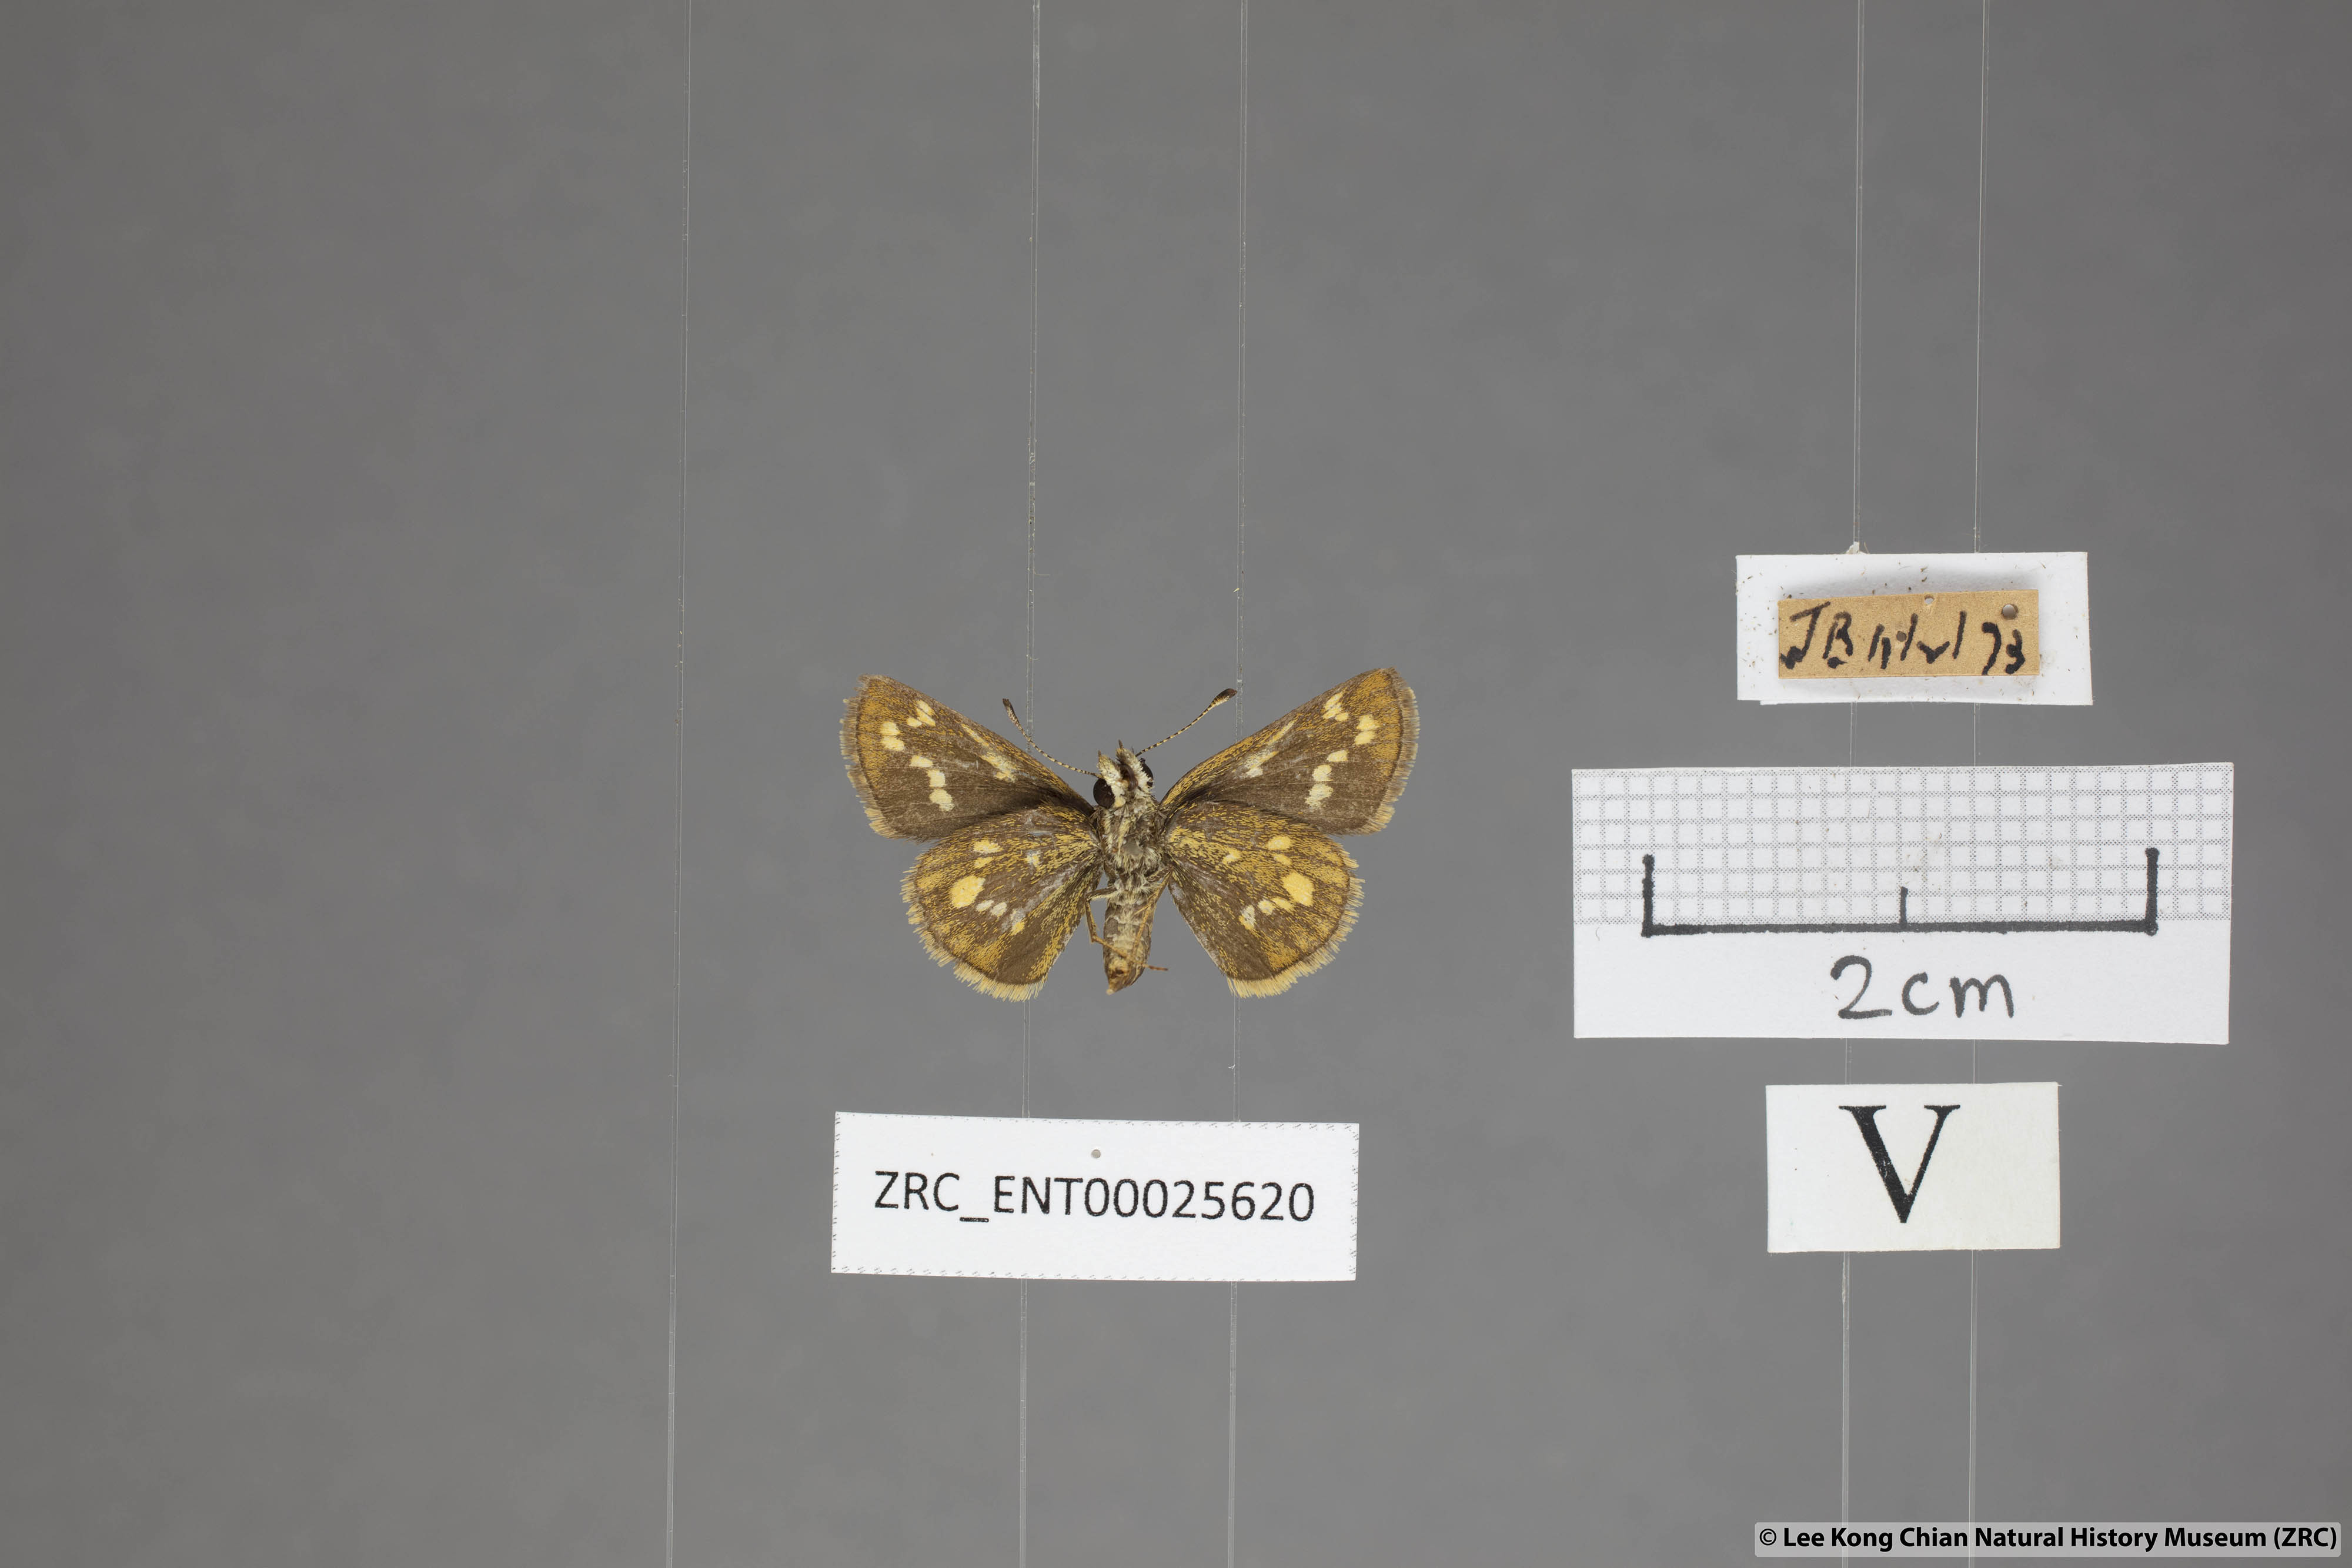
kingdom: Animalia
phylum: Arthropoda
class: Insecta
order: Lepidoptera
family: Hesperiidae
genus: Taractrocera
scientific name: Taractrocera ardonia
